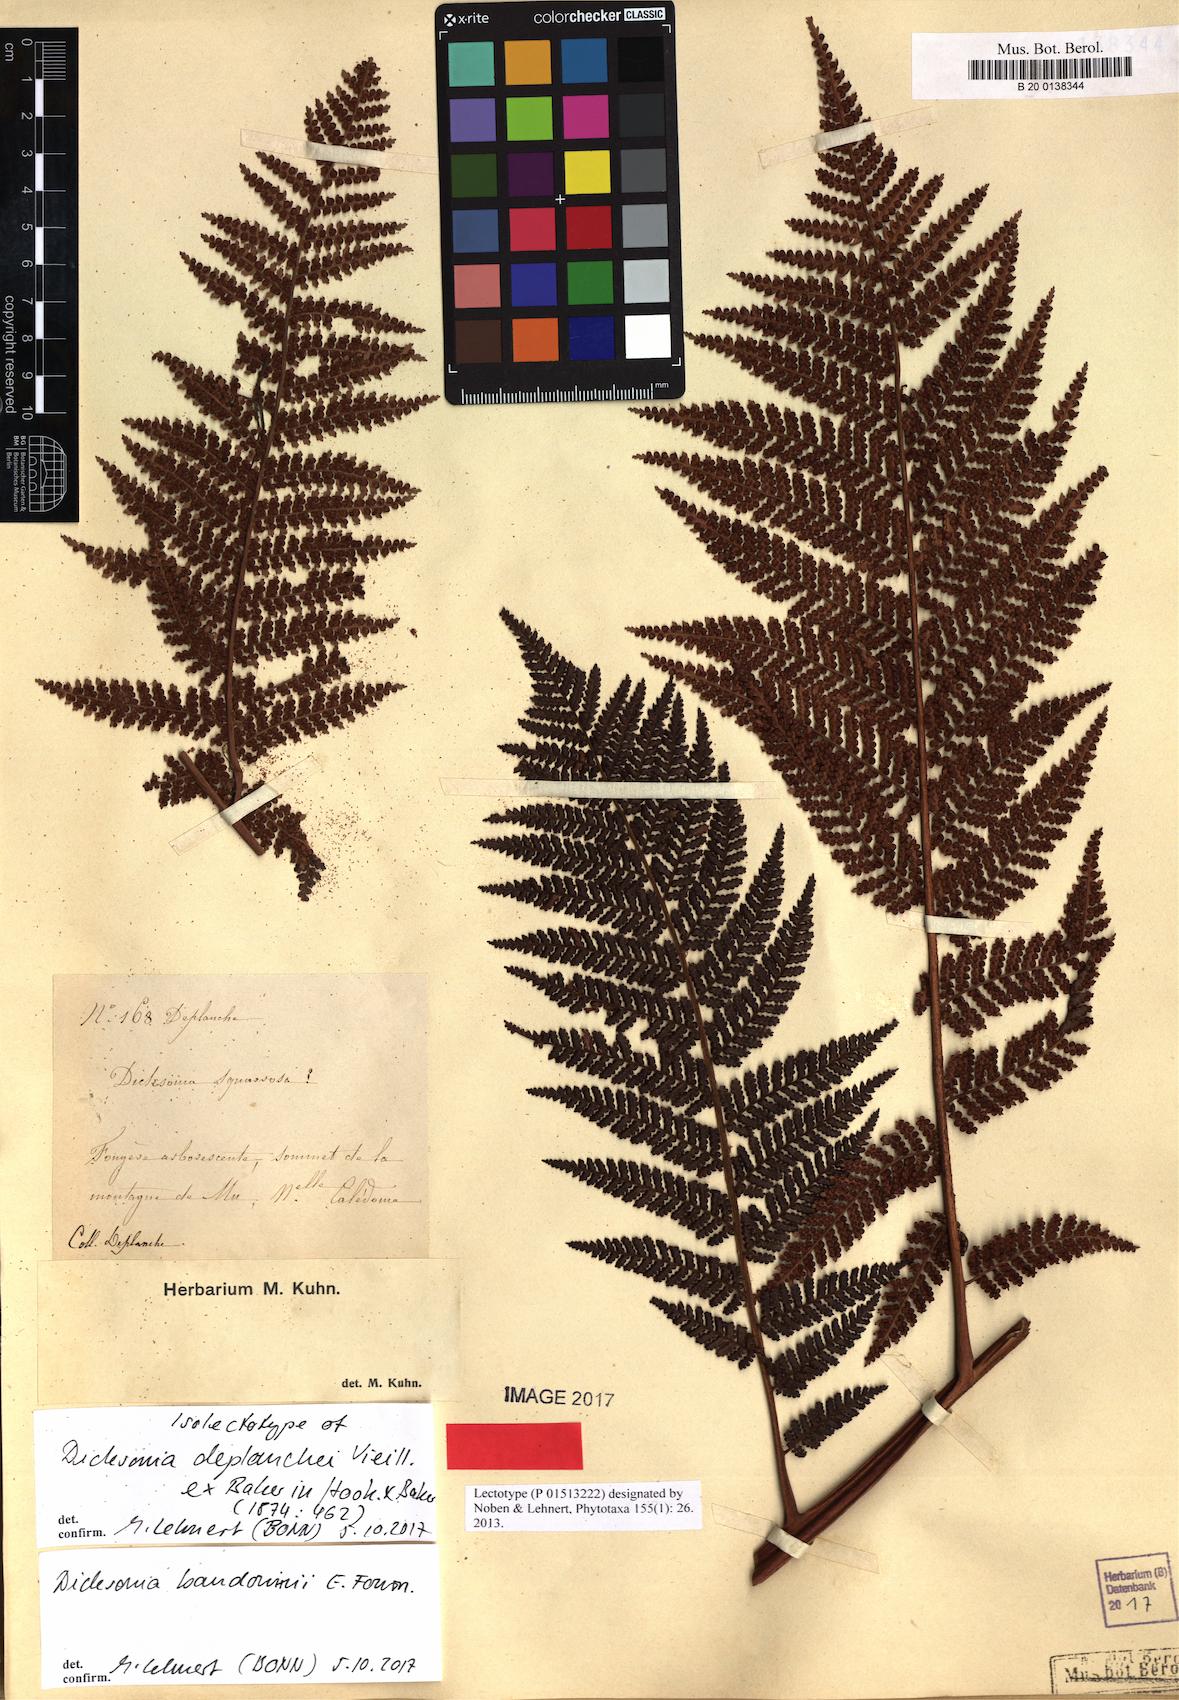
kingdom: Plantae
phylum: Tracheophyta
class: Polypodiopsida
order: Cyatheales
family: Dicksoniaceae
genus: Dicksonia
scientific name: Dicksonia baudouinii
